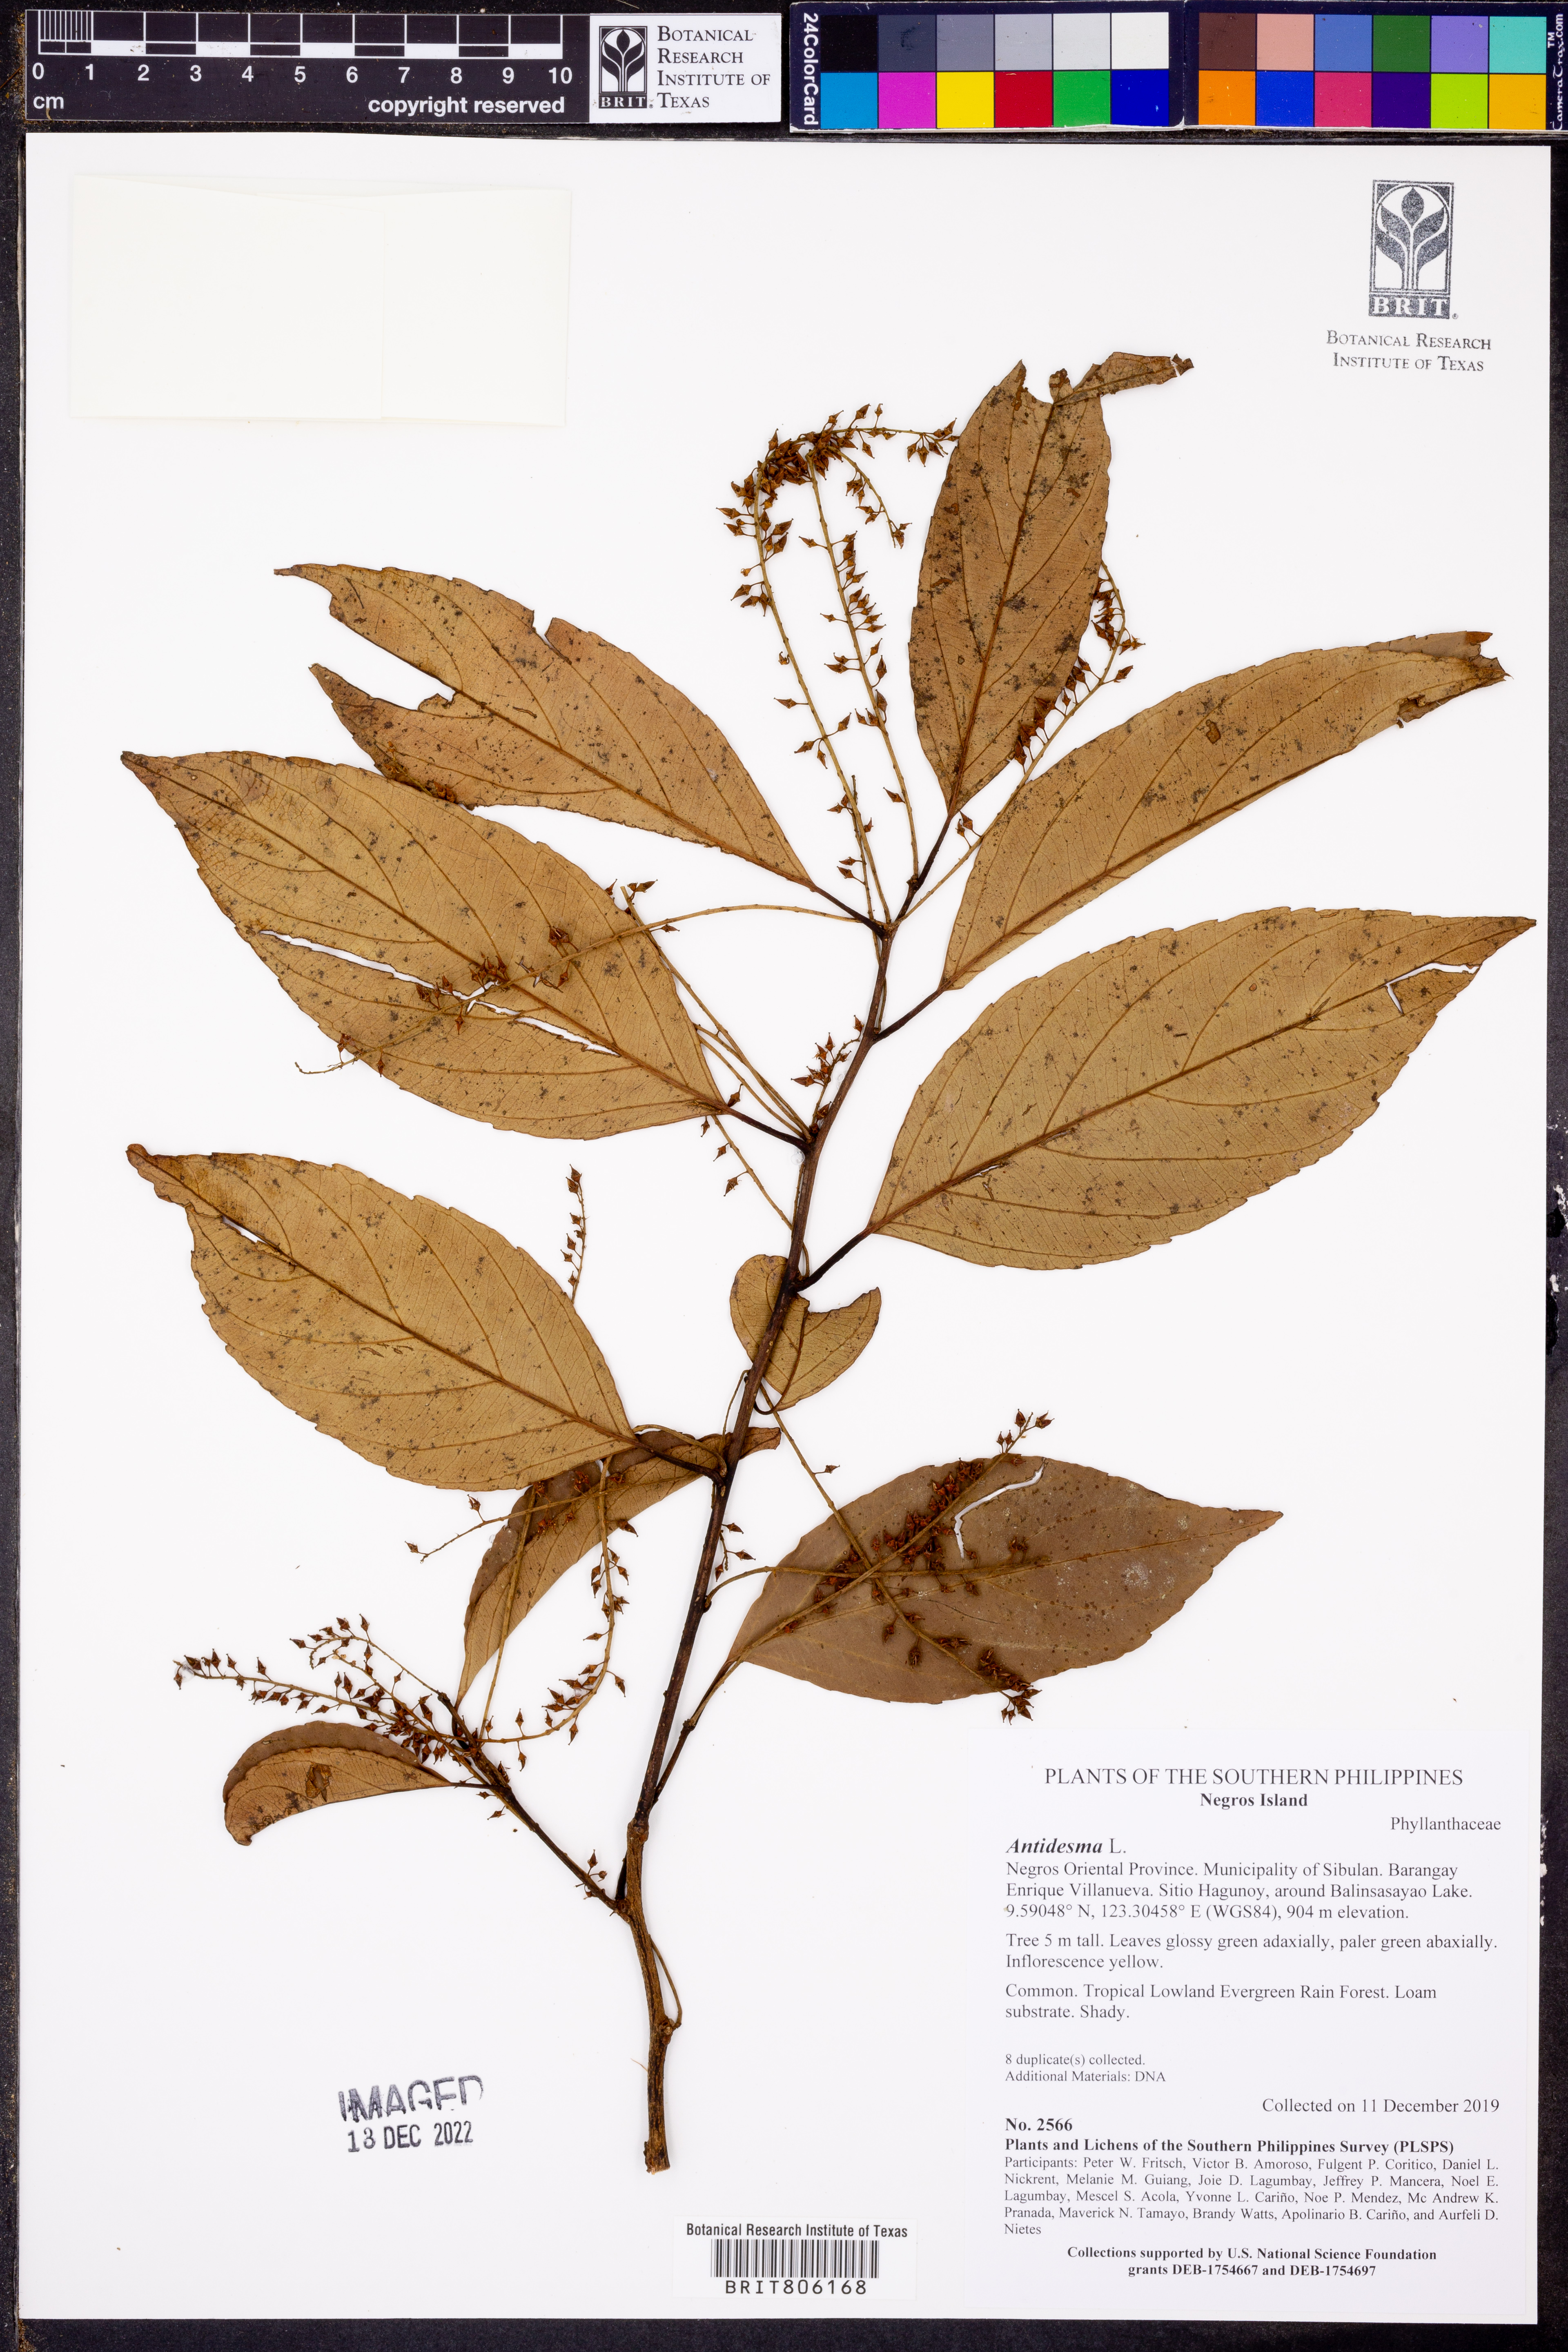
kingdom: Plantae
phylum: Tracheophyta
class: Magnoliopsida
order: Malpighiales
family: Phyllanthaceae
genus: Antidesma
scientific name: Antidesma
